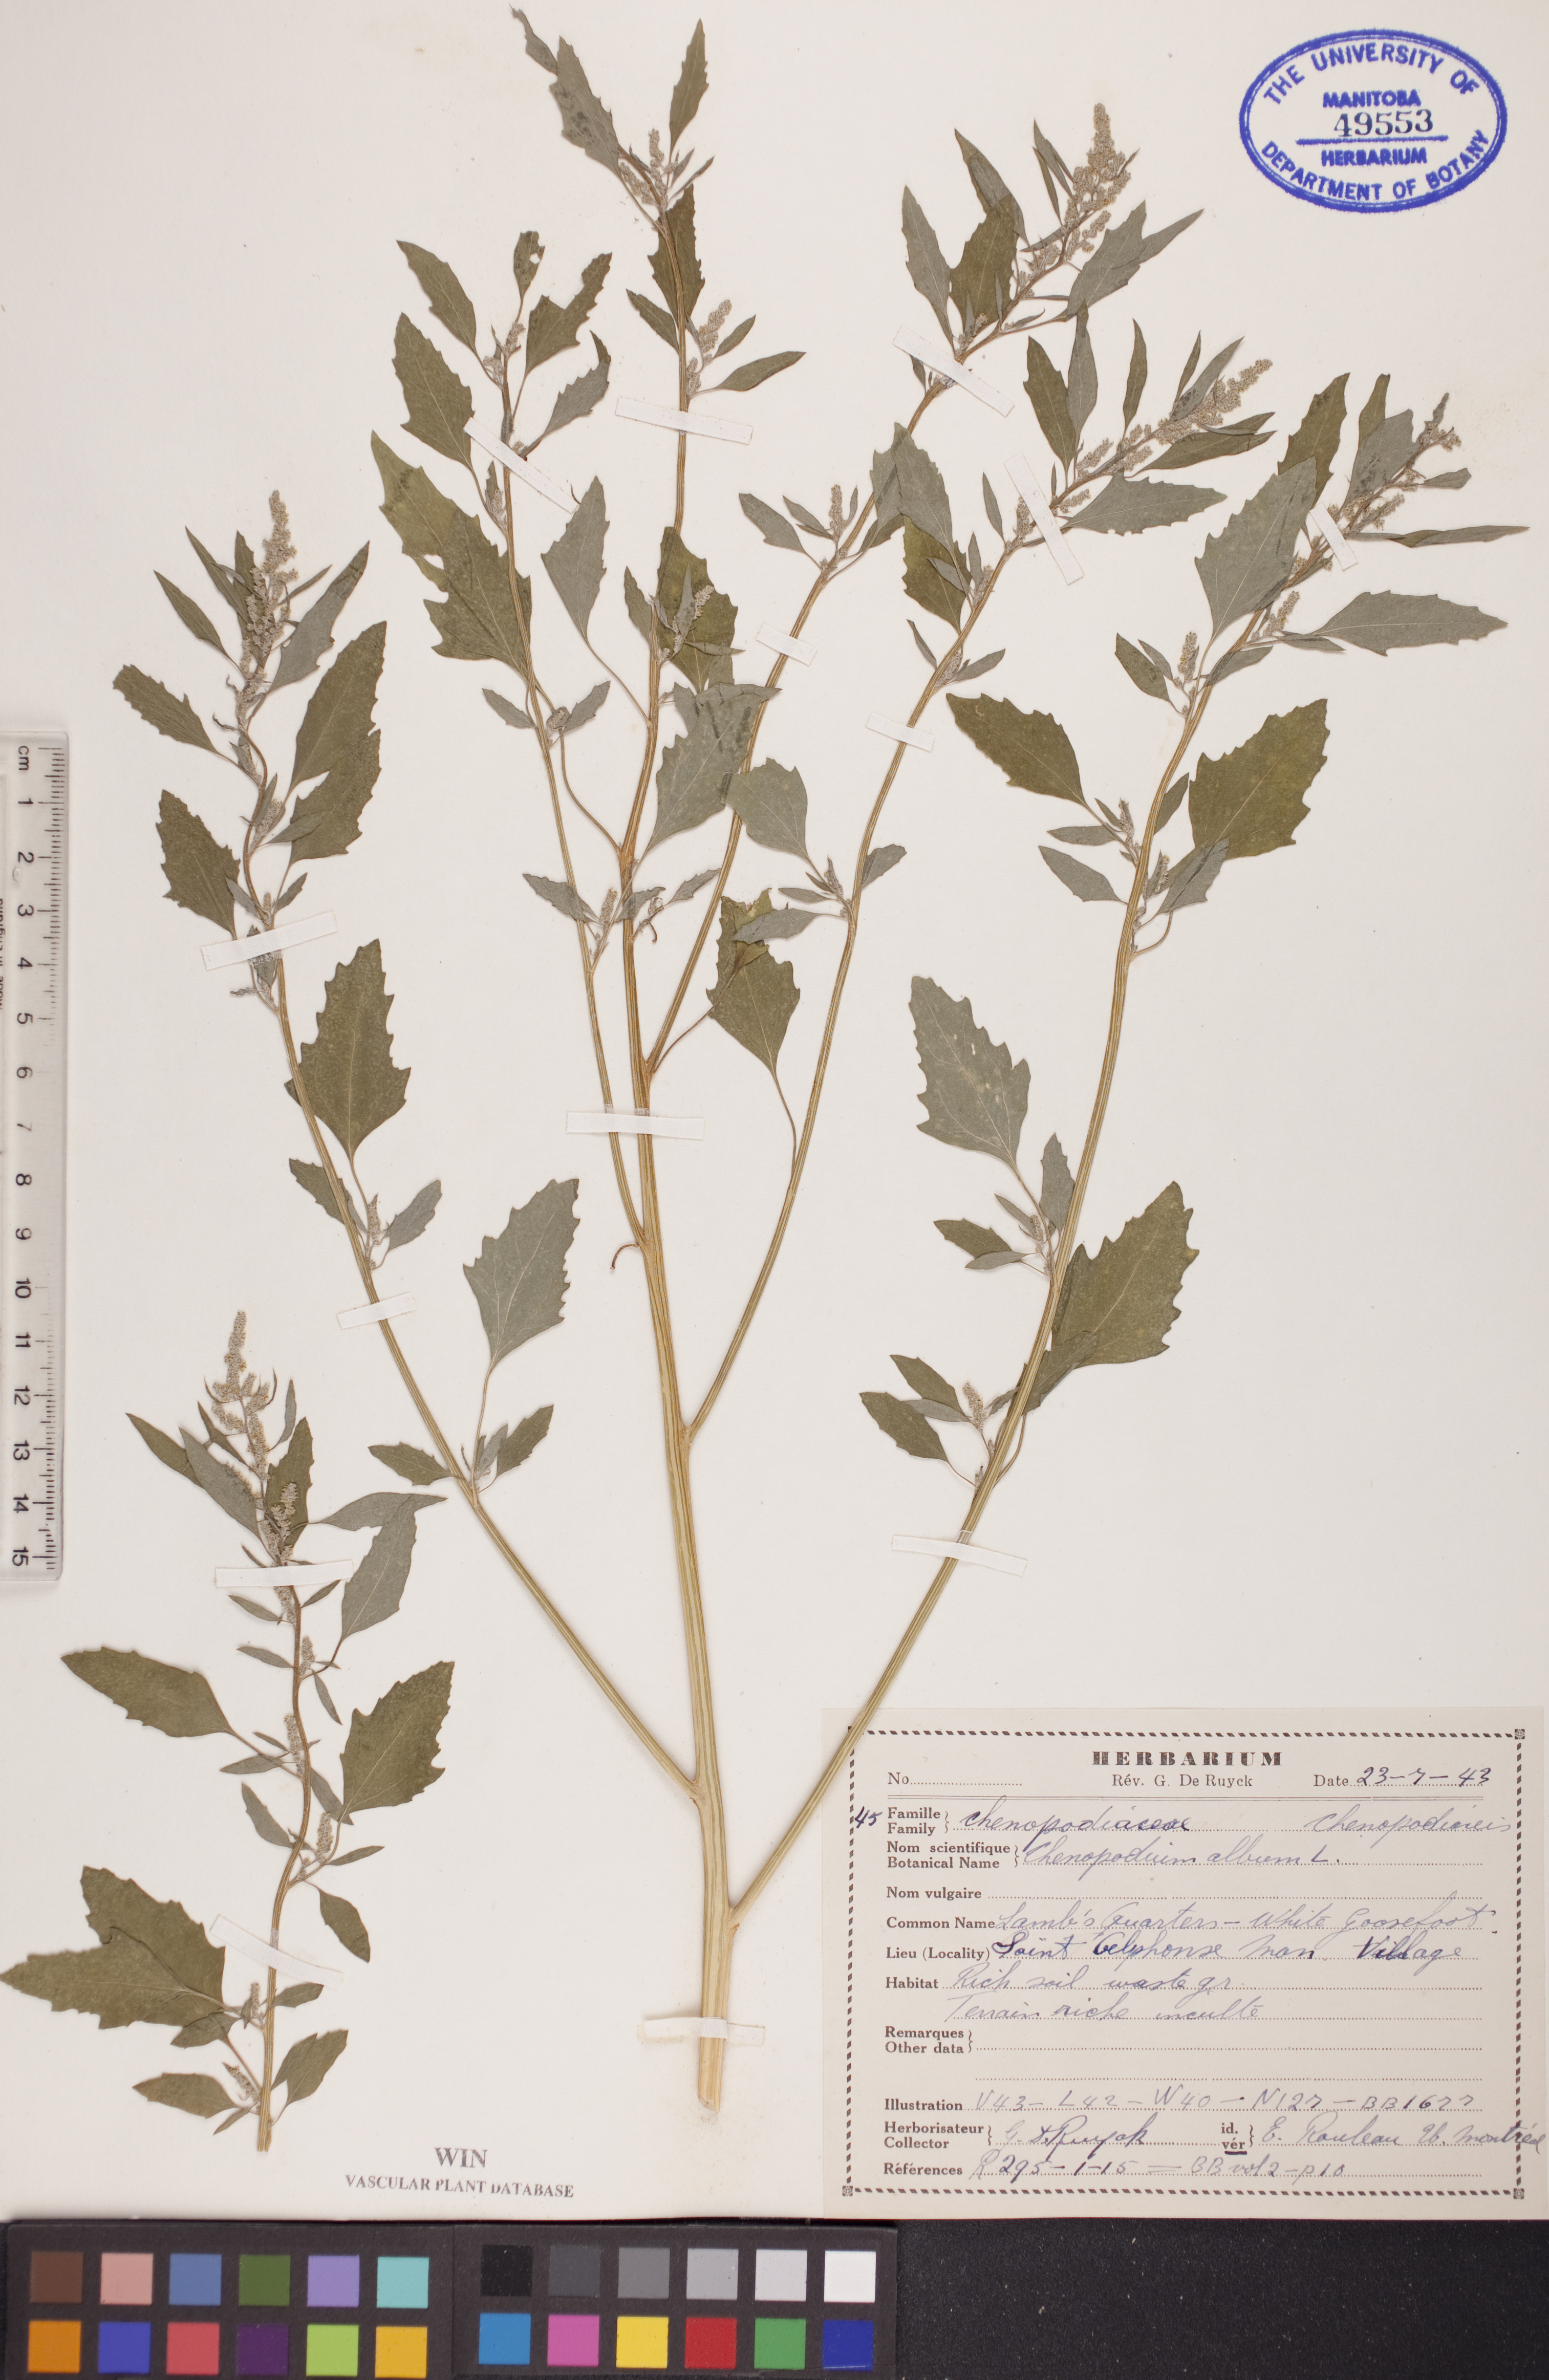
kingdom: Plantae
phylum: Tracheophyta
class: Magnoliopsida
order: Caryophyllales
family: Amaranthaceae
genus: Chenopodium
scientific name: Chenopodium album
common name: Fat-hen
